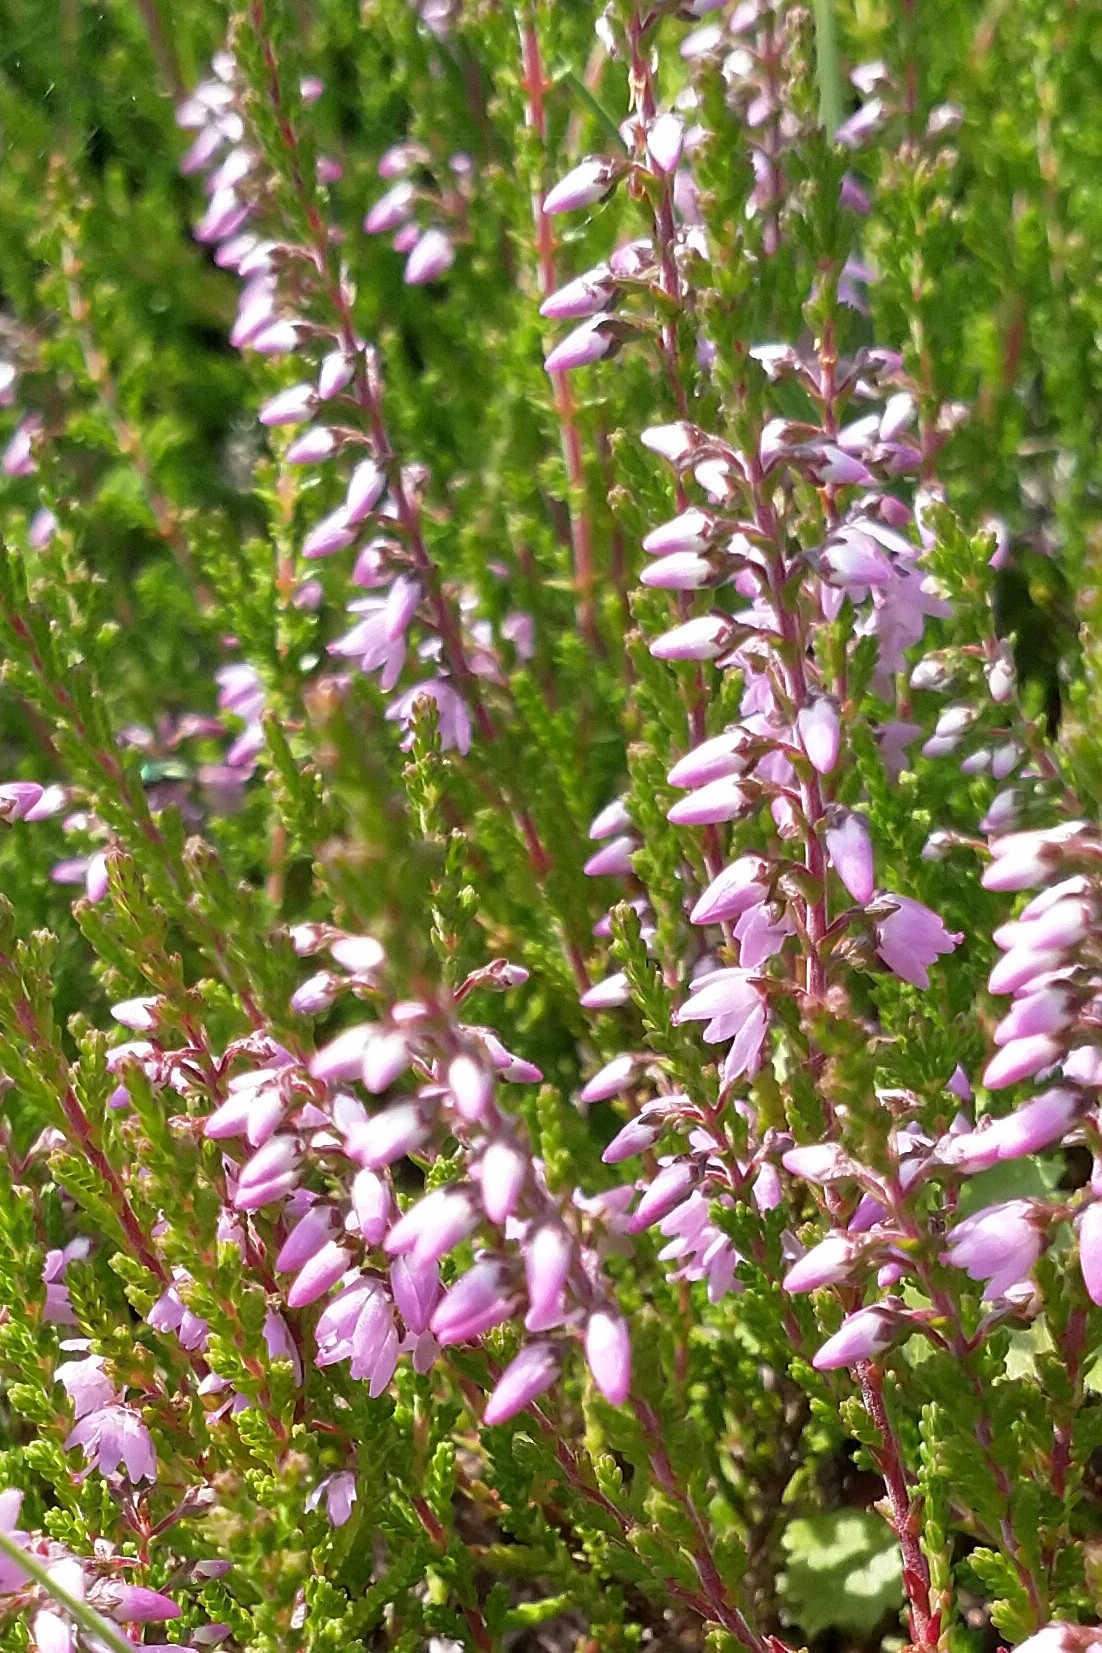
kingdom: Plantae
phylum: Tracheophyta
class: Magnoliopsida
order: Ericales
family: Ericaceae
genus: Calluna
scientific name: Calluna vulgaris
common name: Hedelyng
